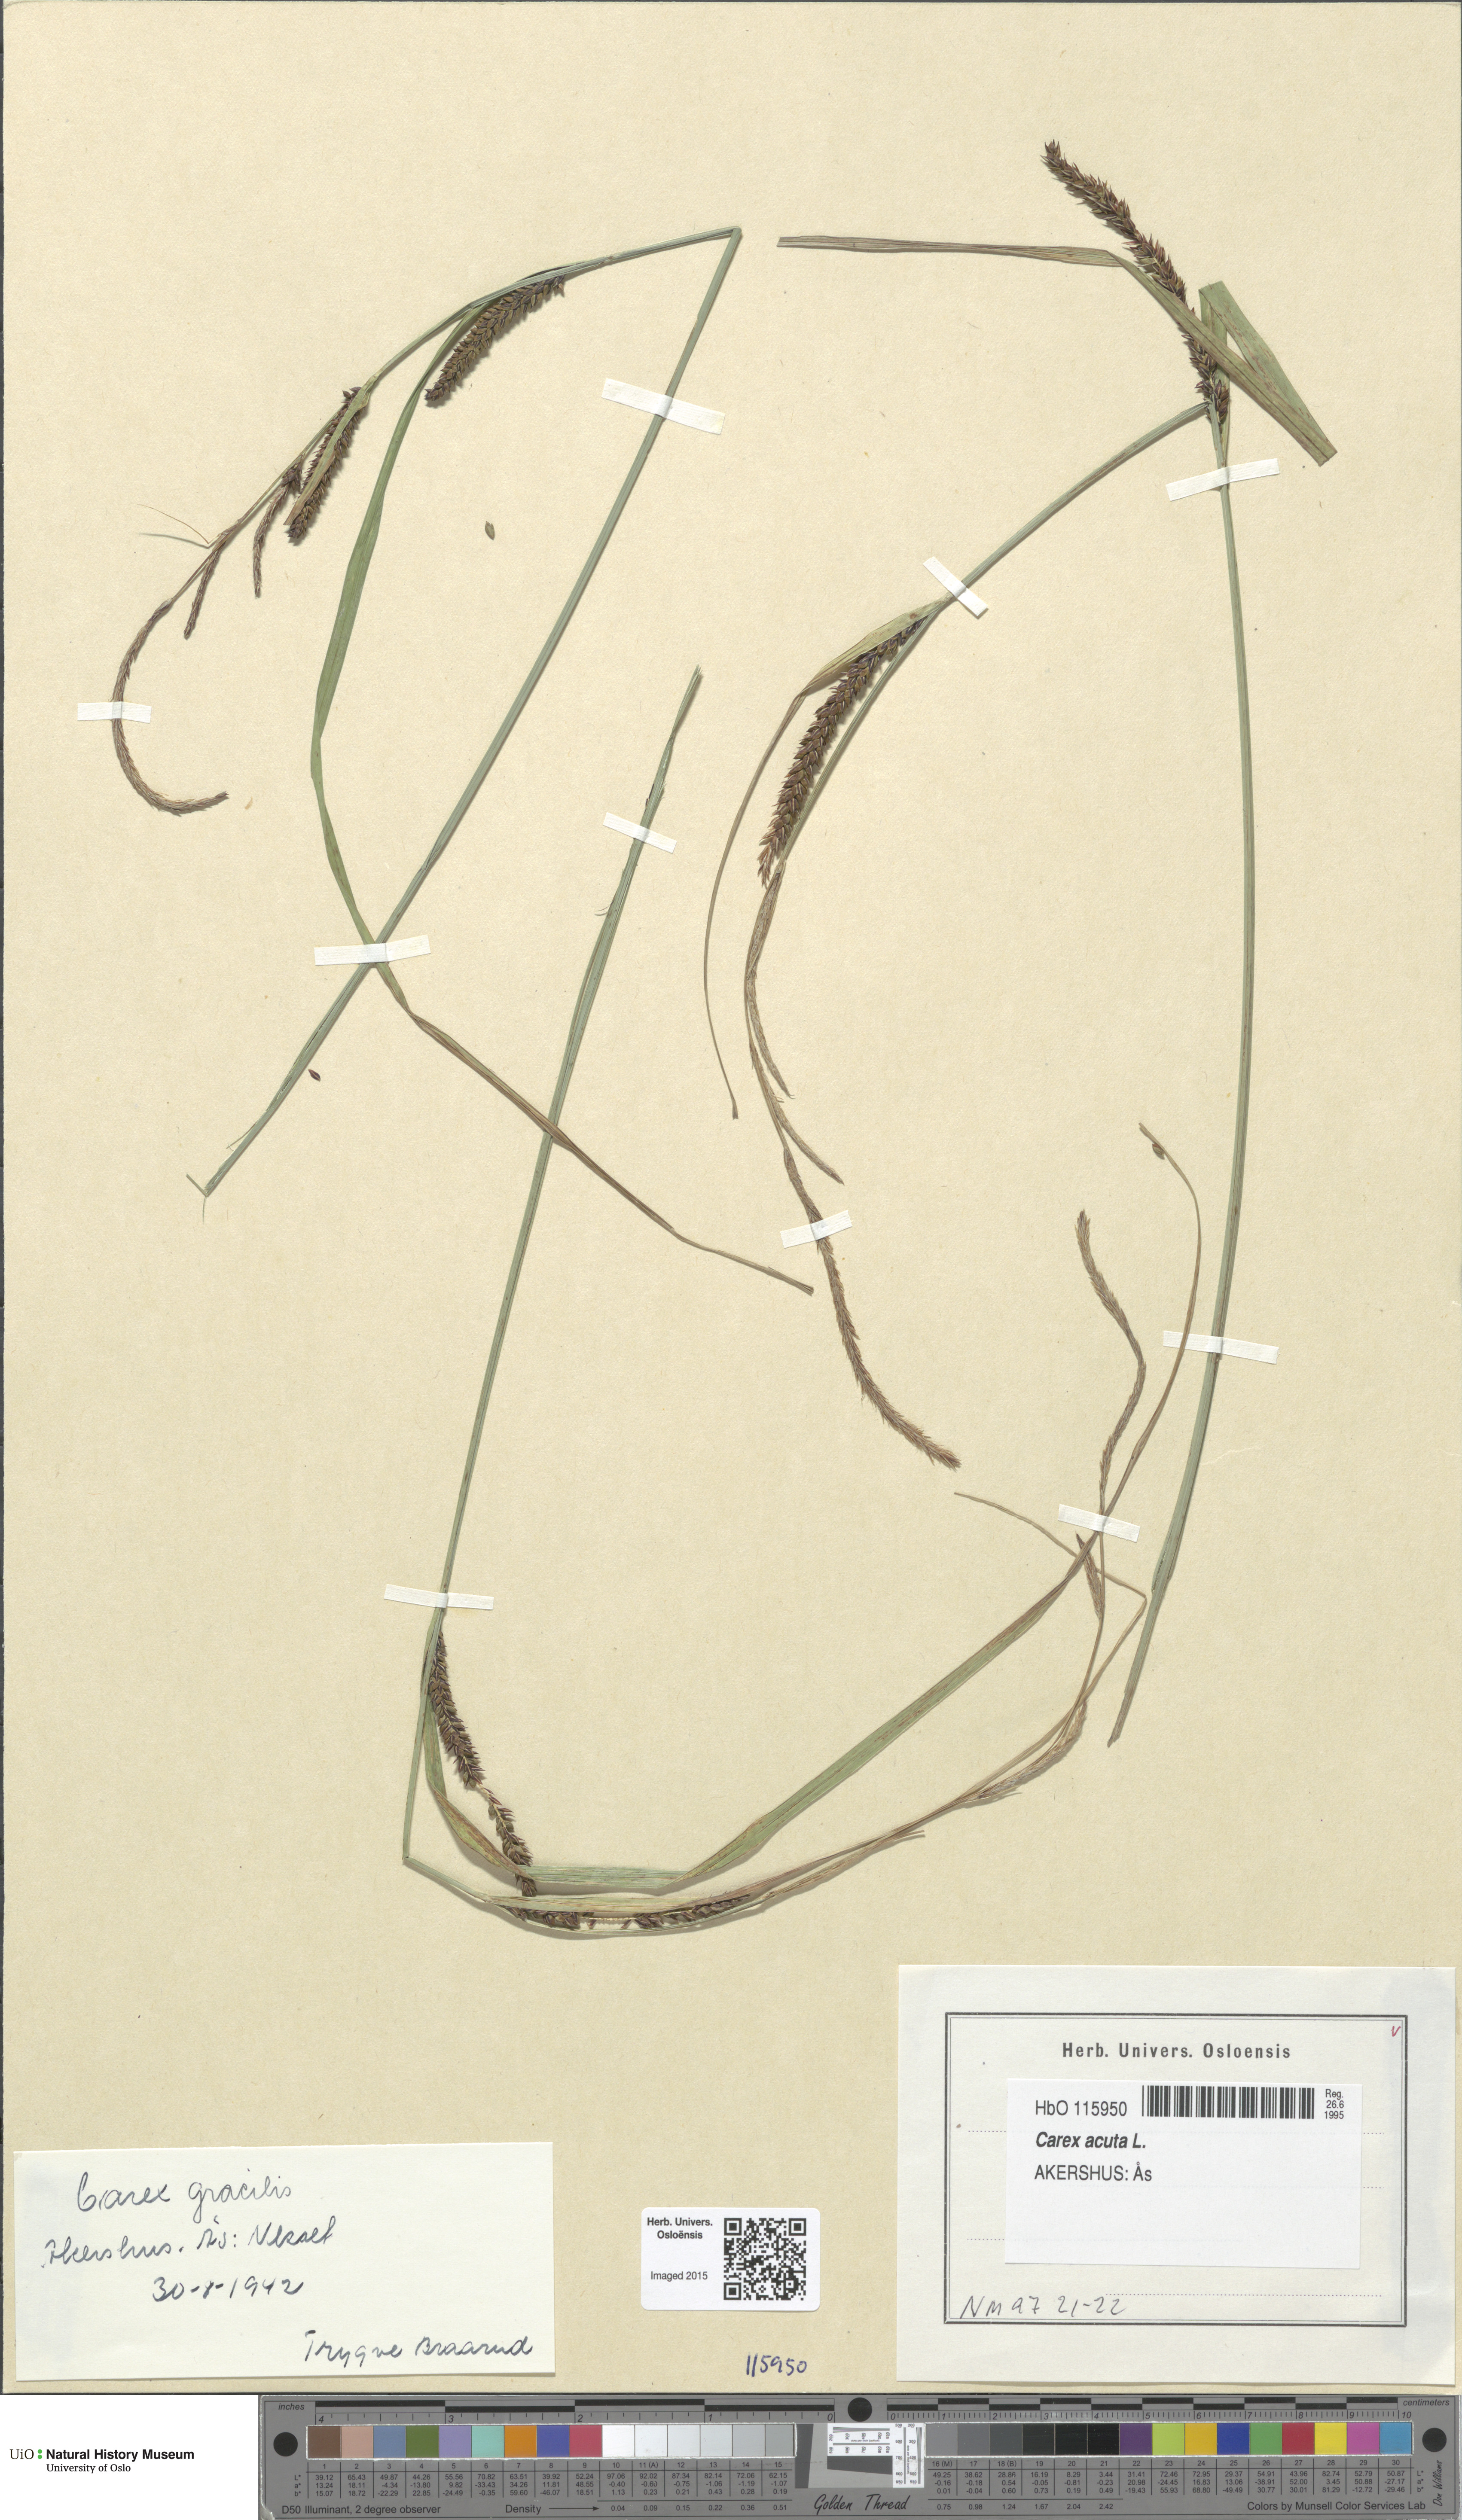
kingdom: Plantae
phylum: Tracheophyta
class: Liliopsida
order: Poales
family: Cyperaceae
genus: Carex
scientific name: Carex acuta
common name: Slender tufted-sedge
